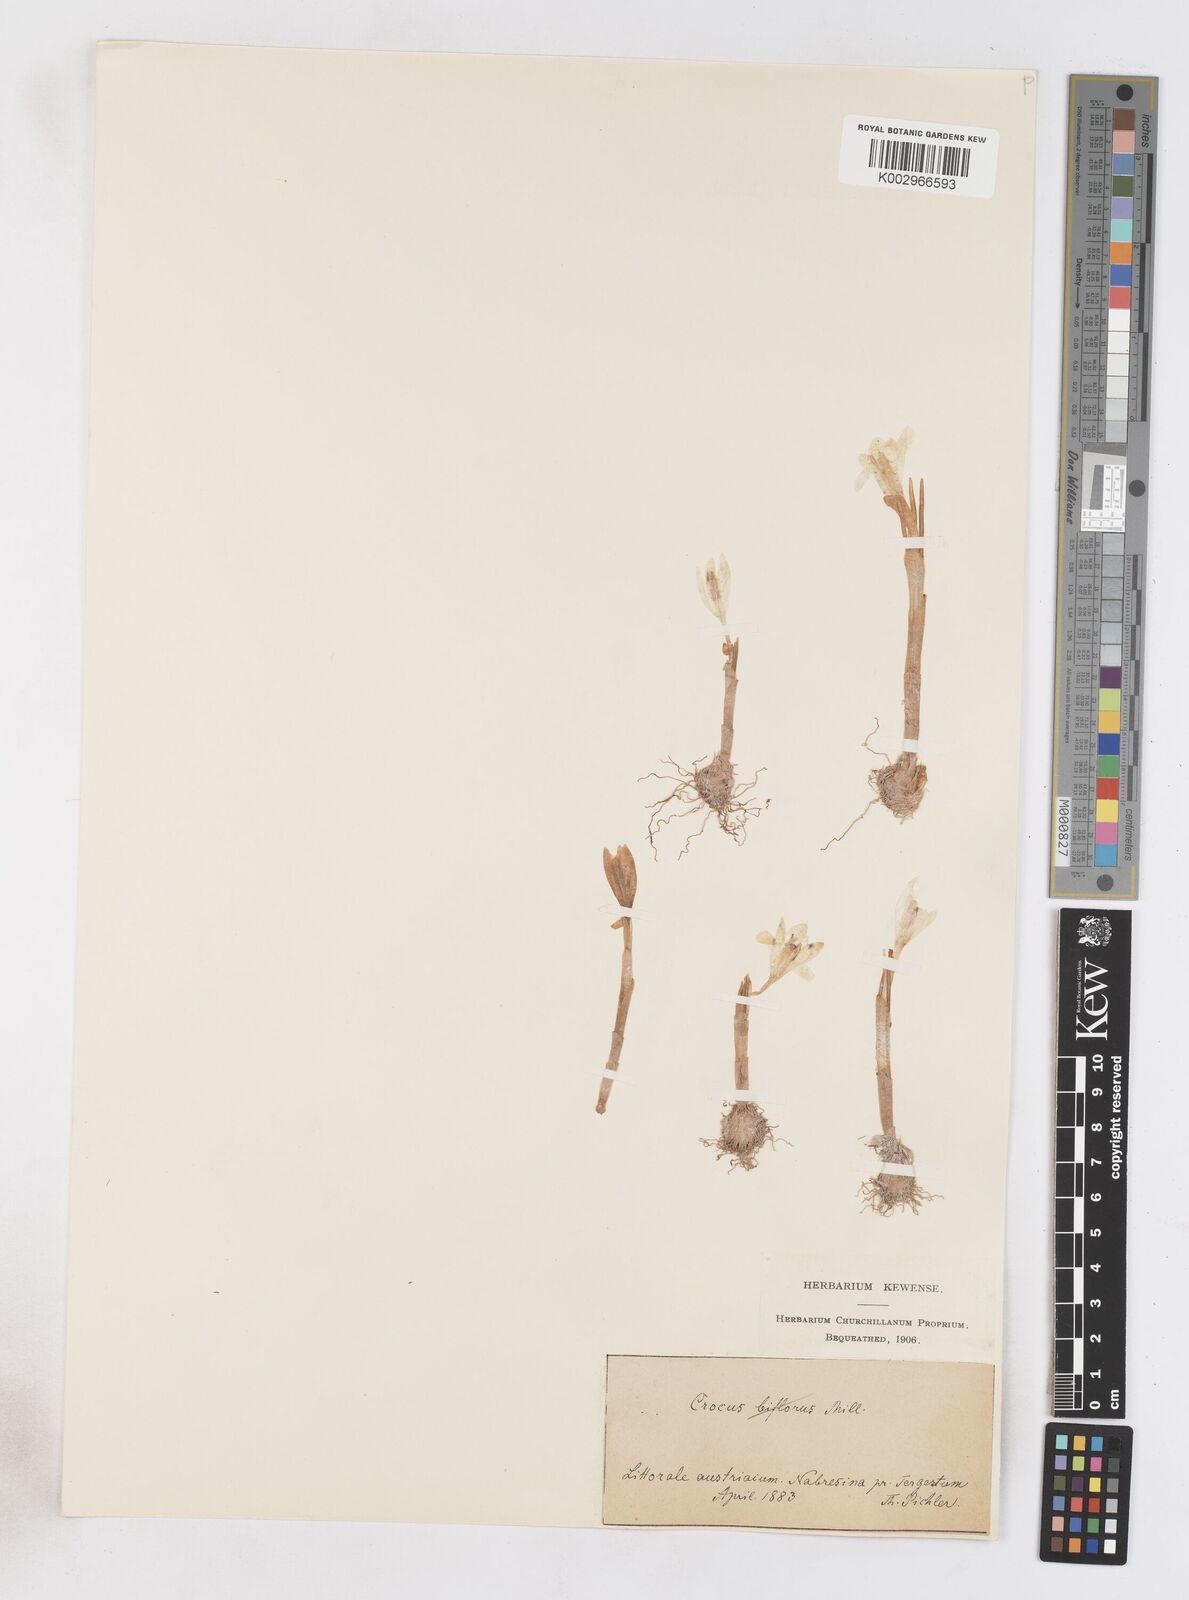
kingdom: Plantae
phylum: Tracheophyta
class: Liliopsida
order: Asparagales
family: Iridaceae
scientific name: Iridaceae
